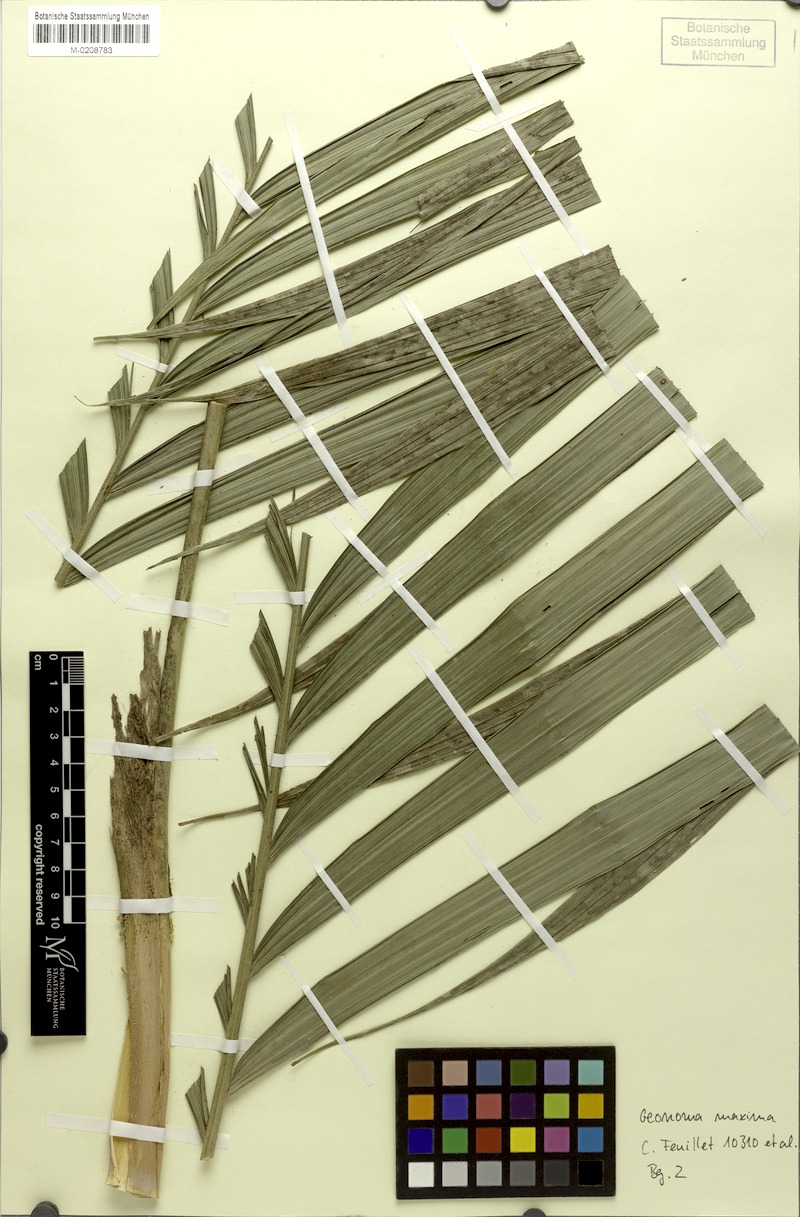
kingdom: Plantae
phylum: Tracheophyta
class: Liliopsida
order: Arecales
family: Arecaceae
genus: Geonoma
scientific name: Geonoma maxima
